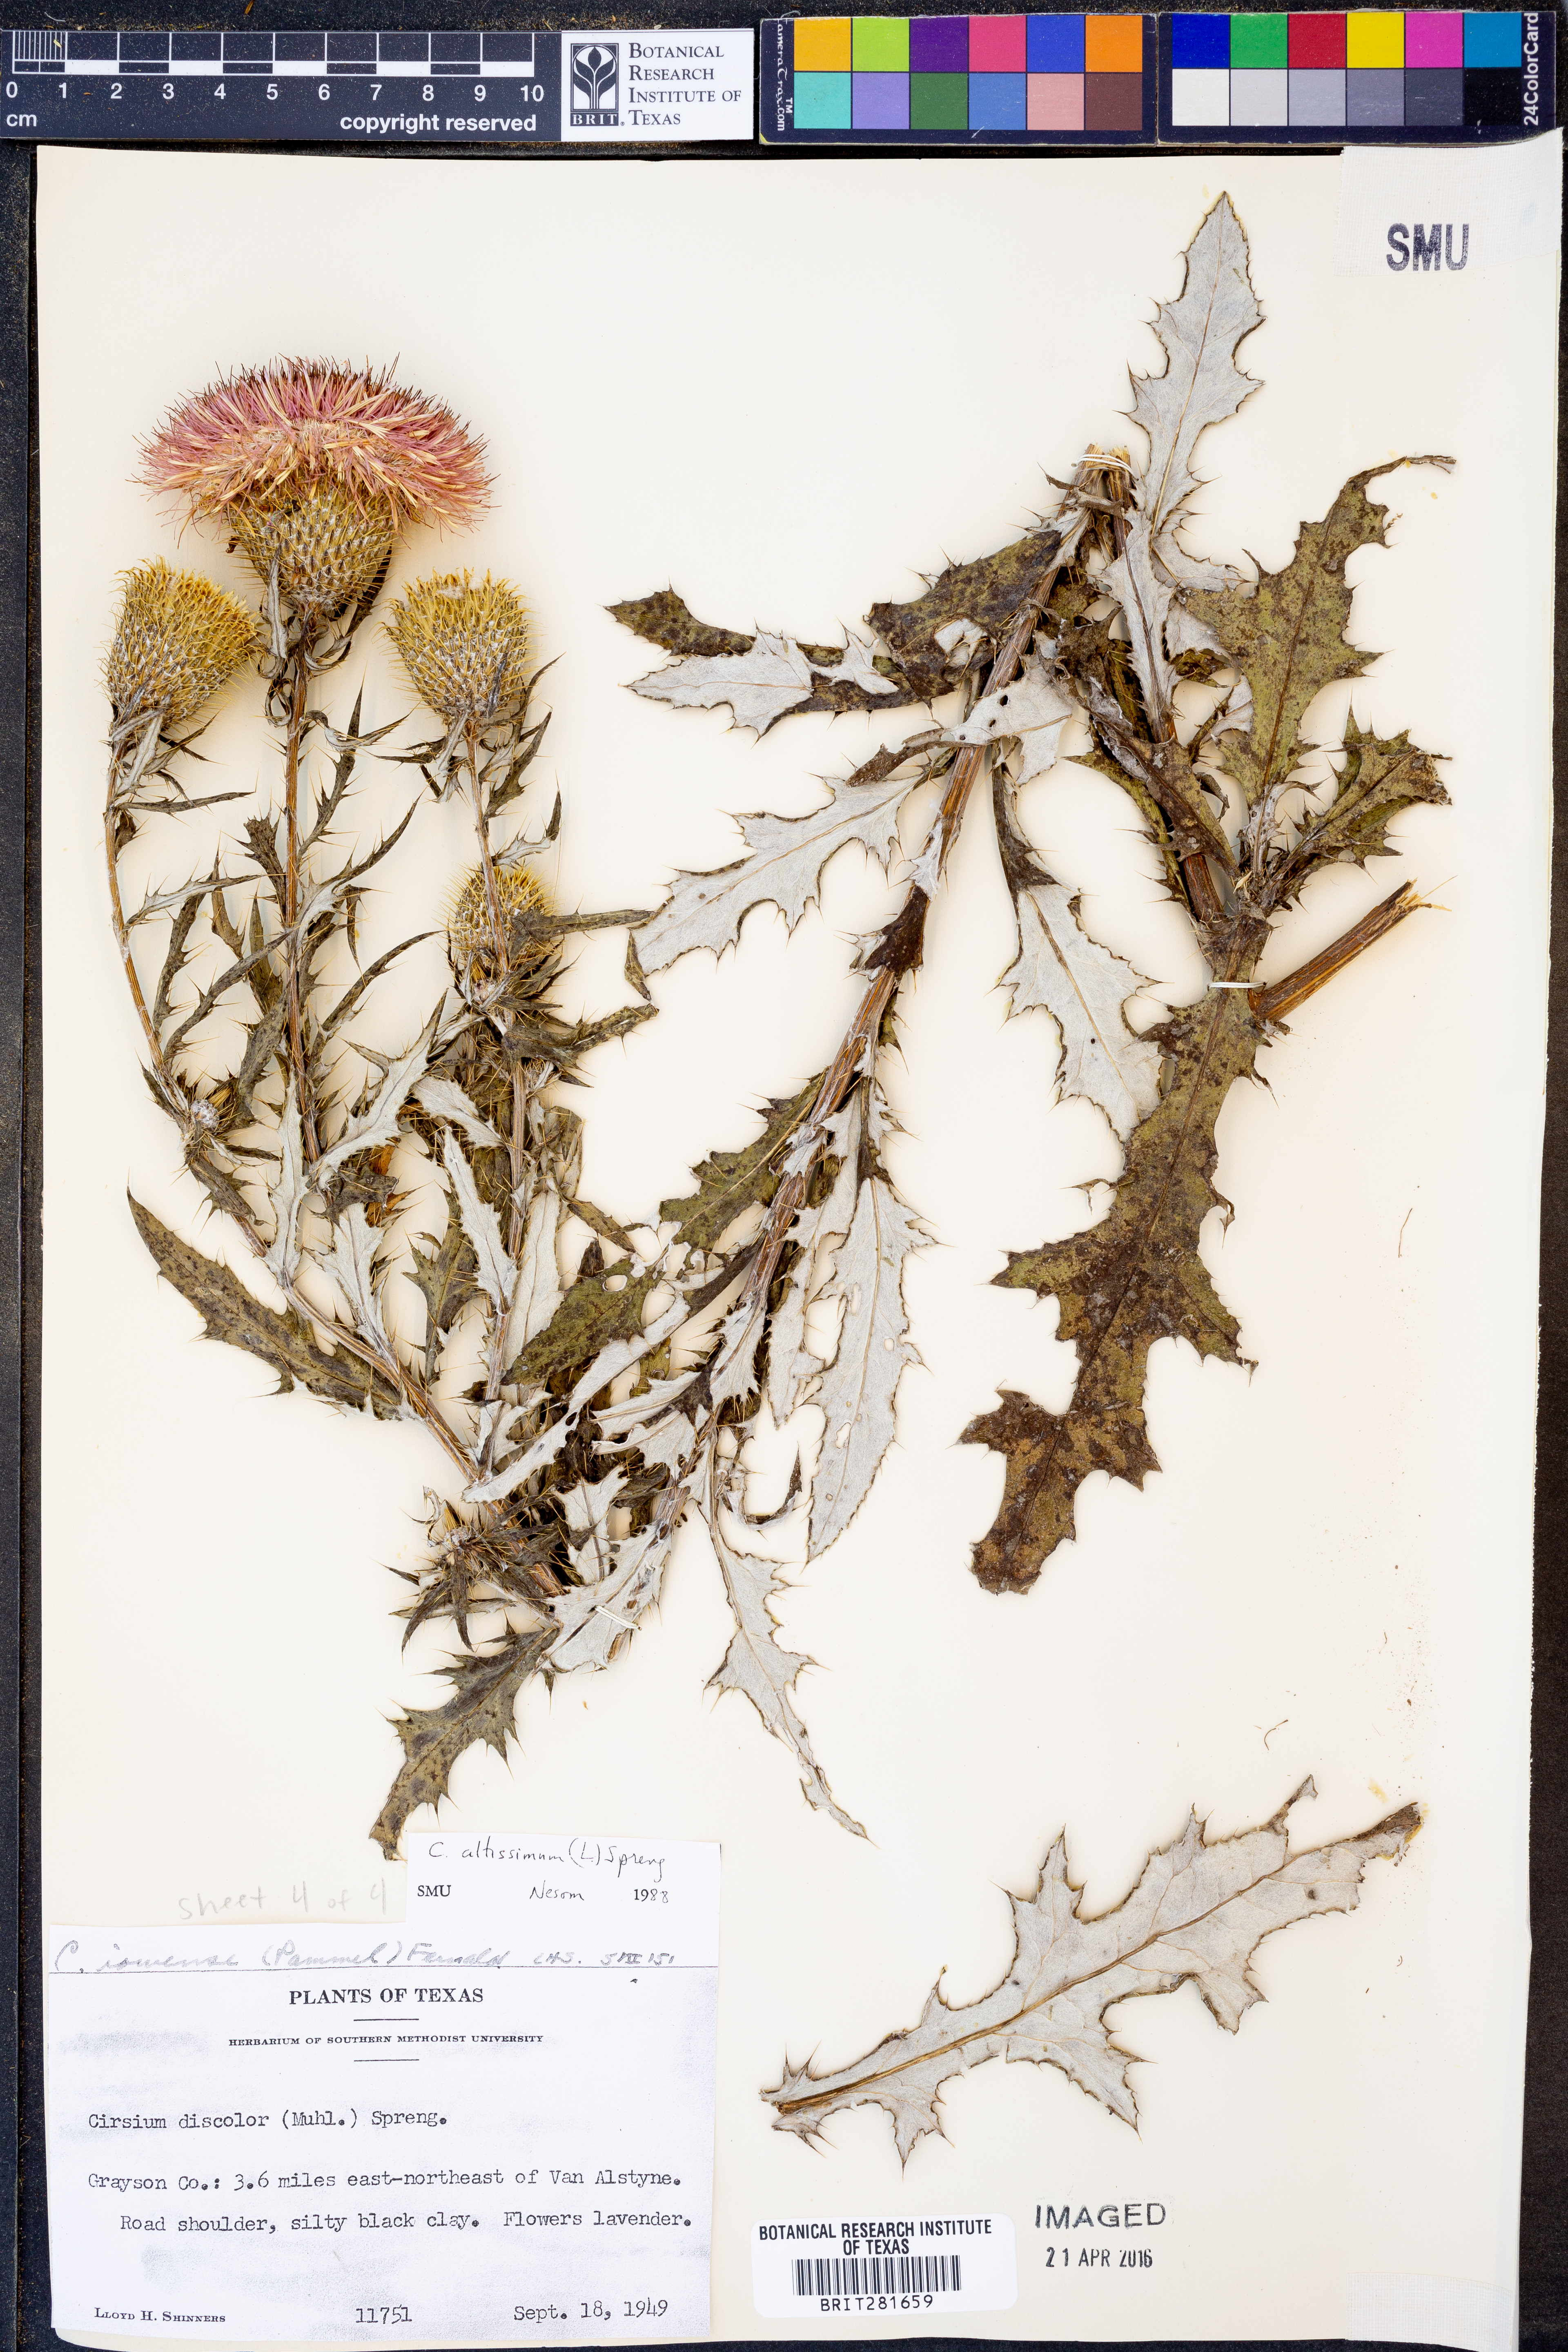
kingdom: Plantae
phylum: Tracheophyta
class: Magnoliopsida
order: Asterales
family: Asteraceae
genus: Cirsium
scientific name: Cirsium altissimum
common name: Roadside thistle
